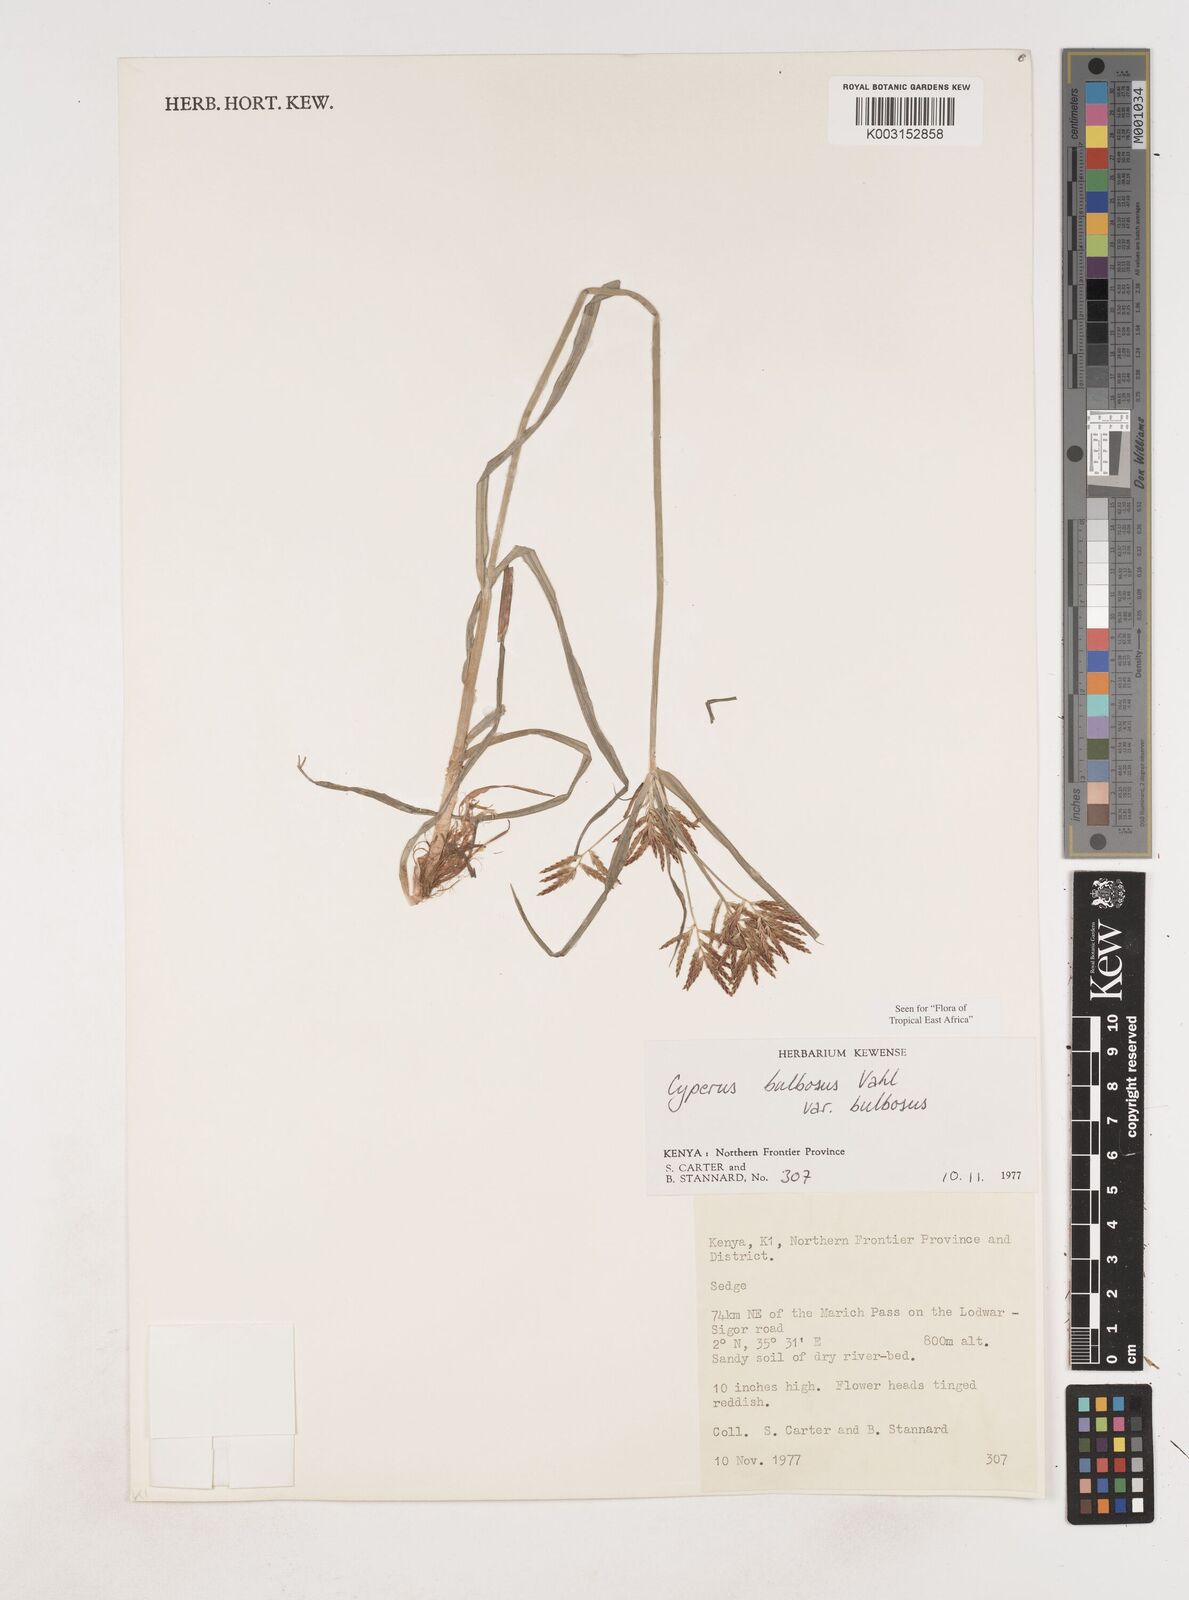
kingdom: Plantae
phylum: Tracheophyta
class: Liliopsida
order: Poales
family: Cyperaceae
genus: Cyperus
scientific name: Cyperus bulbosus
